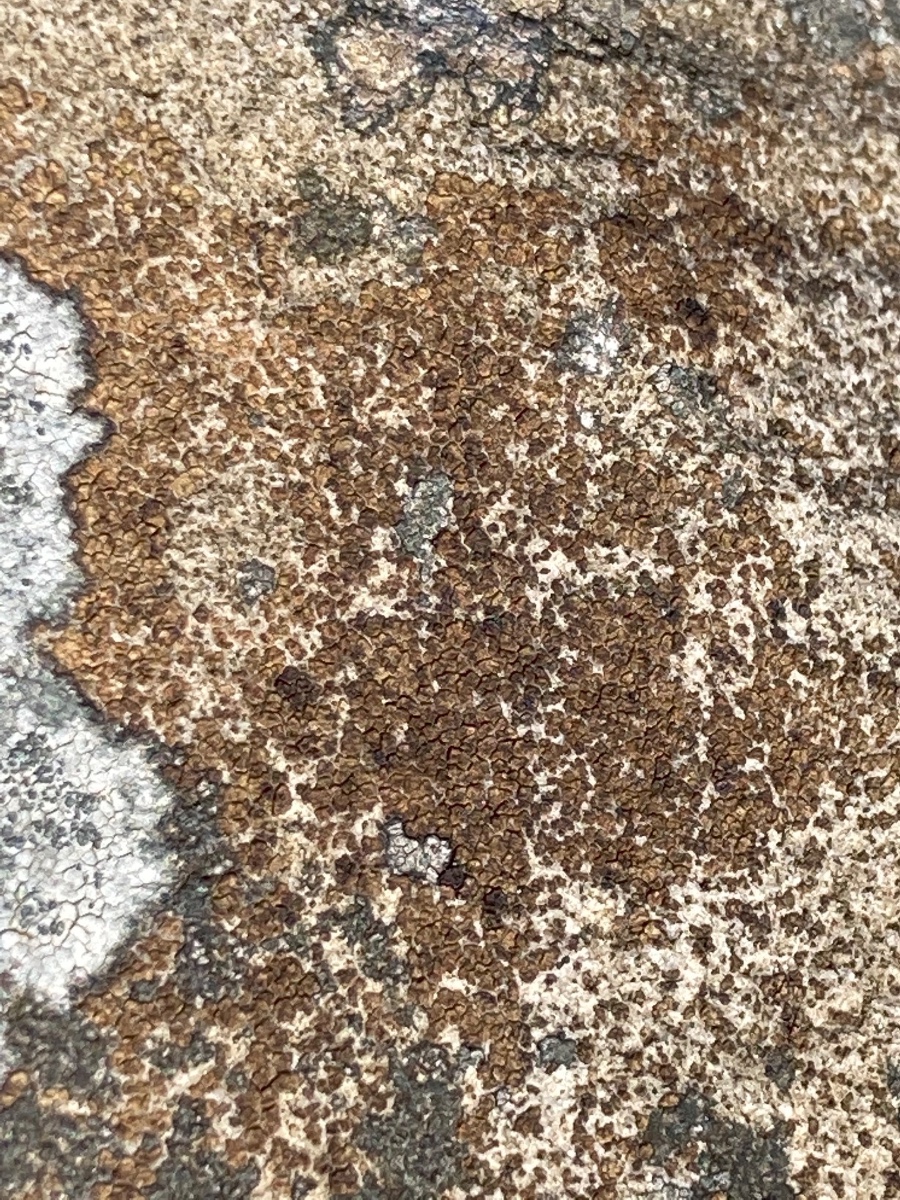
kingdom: Fungi
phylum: Ascomycota
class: Lecanoromycetes
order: Acarosporales
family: Acarosporaceae
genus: Acarospora
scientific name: Acarospora fuscata
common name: brun småsporelav
